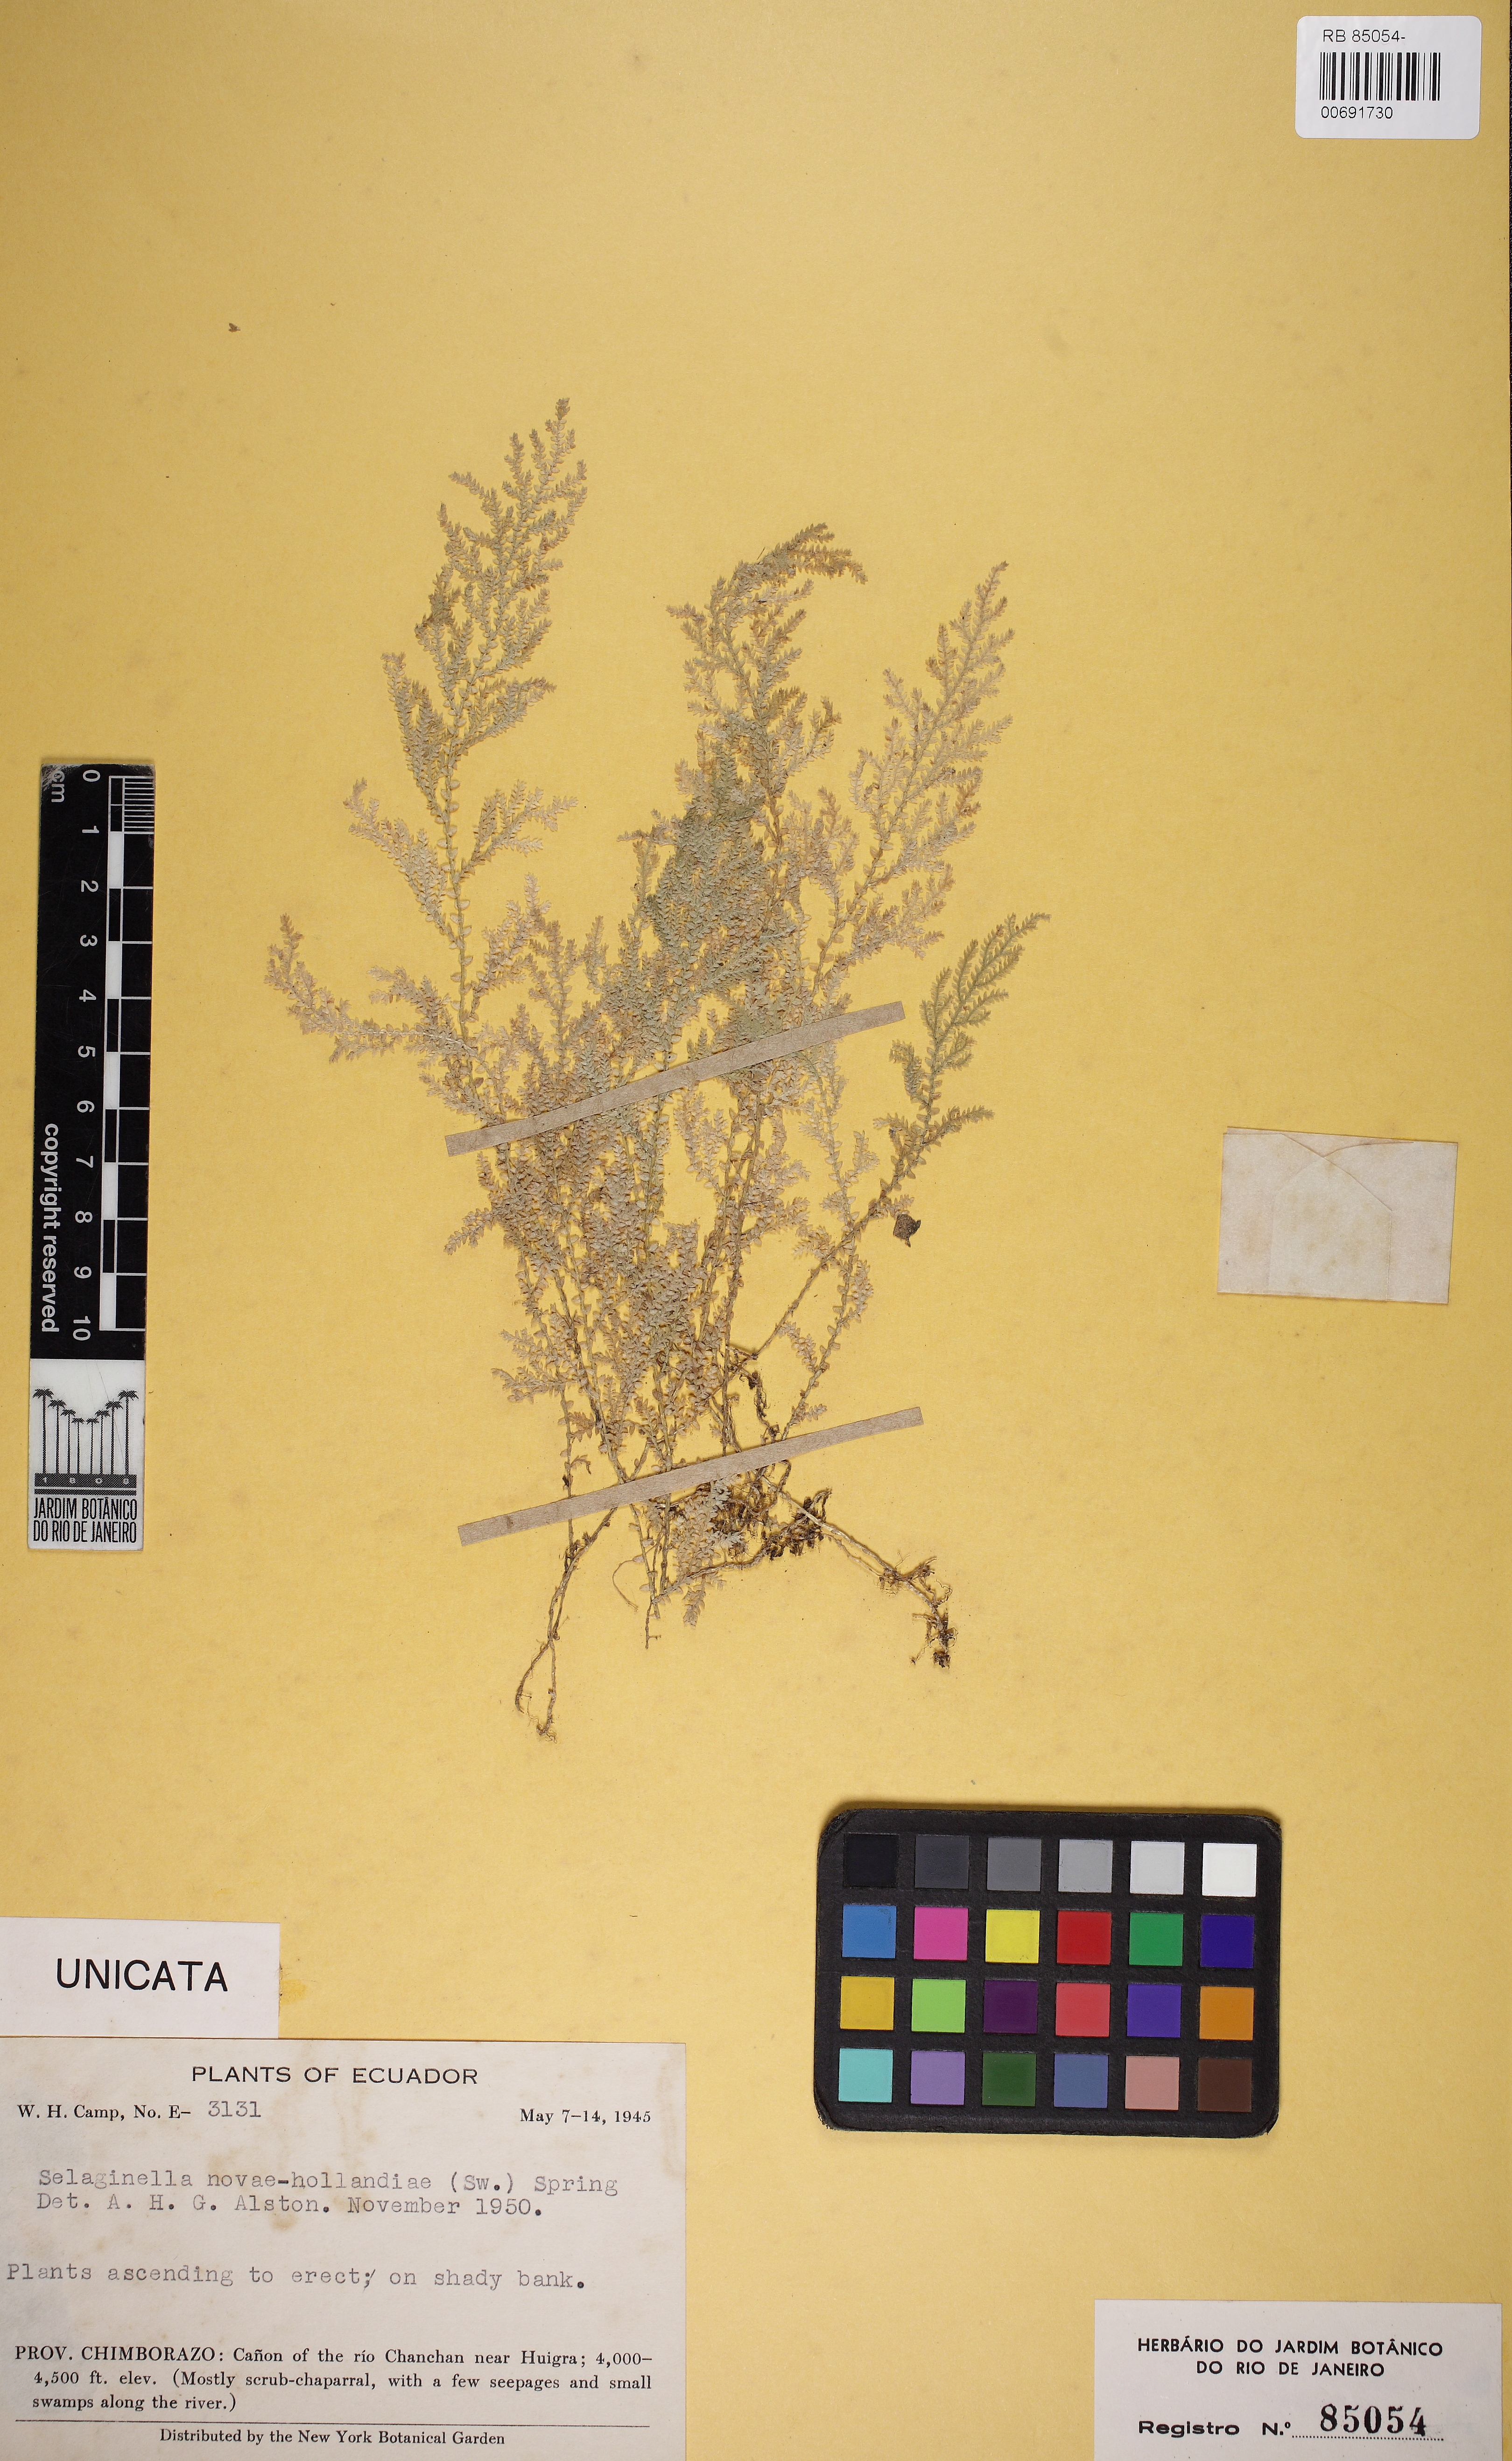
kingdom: Plantae
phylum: Tracheophyta
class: Lycopodiopsida
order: Selaginellales
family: Selaginellaceae
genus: Selaginella
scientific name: Selaginella novae-hollandiae
